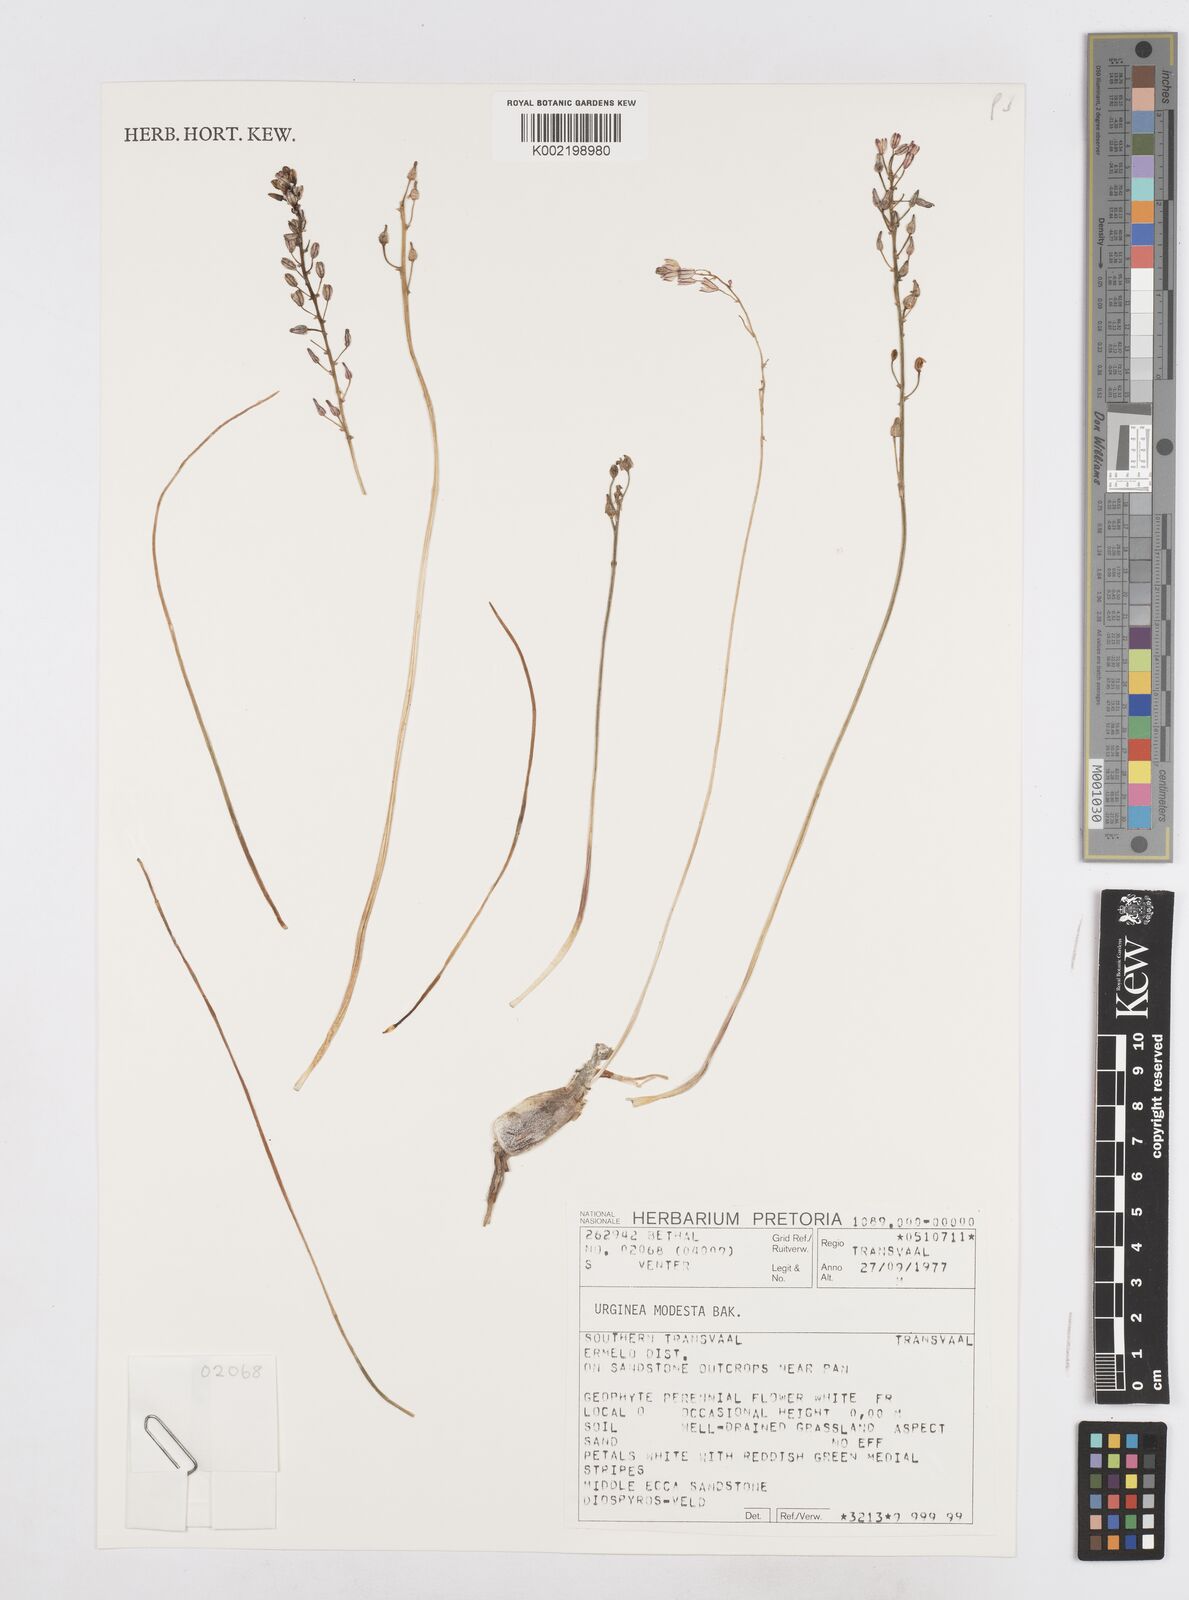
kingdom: Plantae
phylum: Tracheophyta
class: Liliopsida
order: Asparagales
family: Asparagaceae
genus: Drimia
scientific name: Drimia modesta
